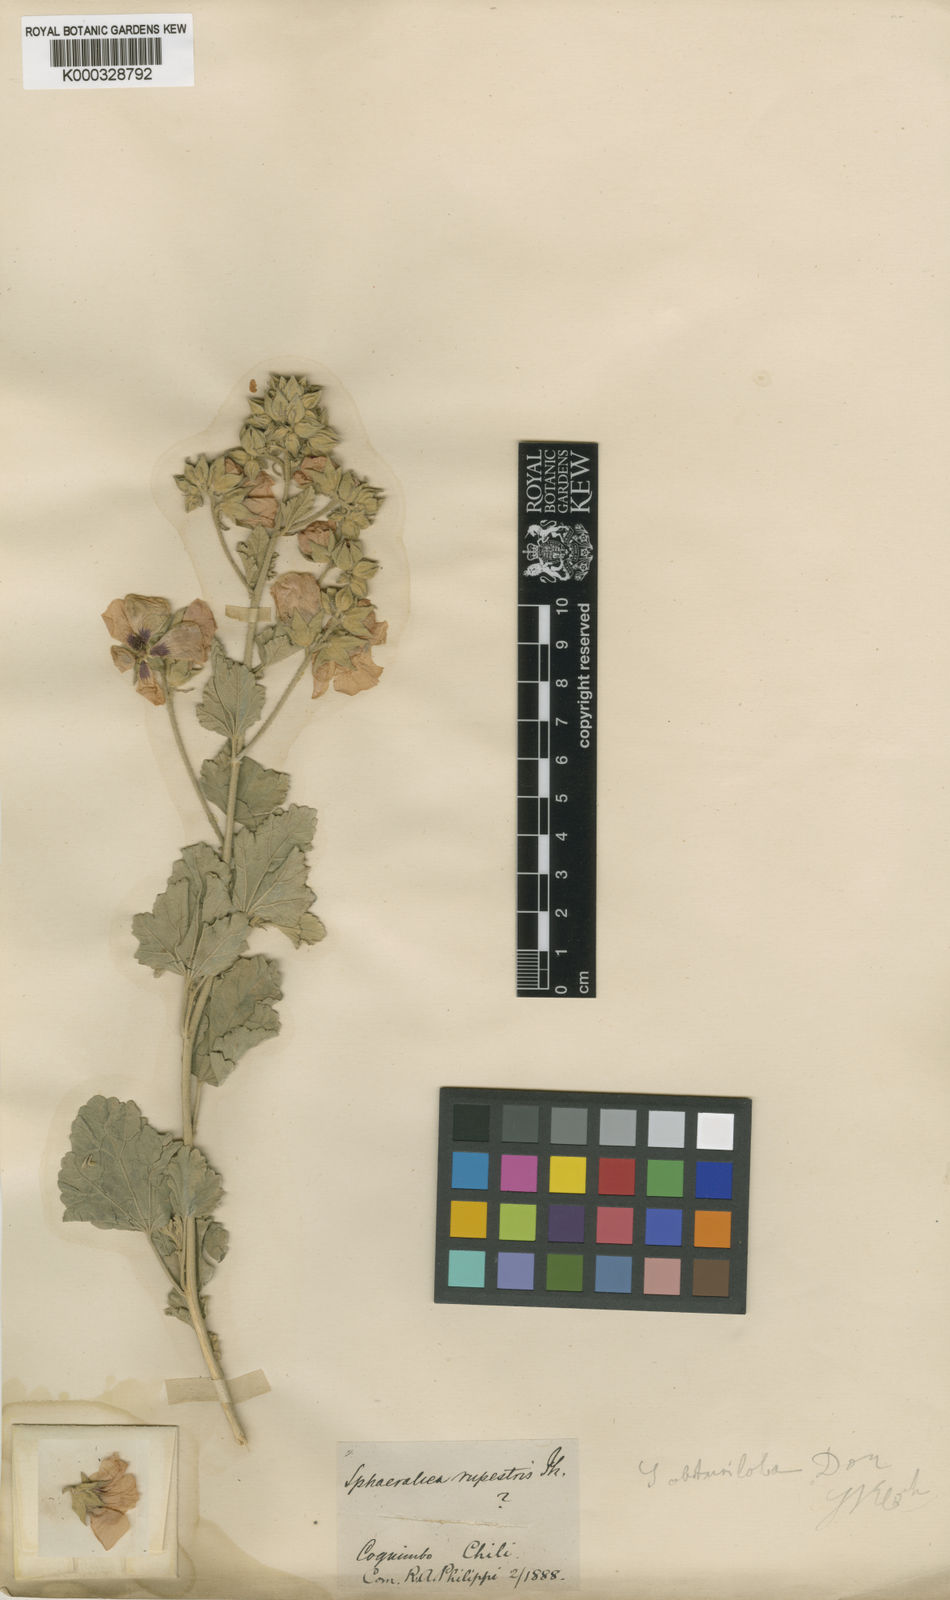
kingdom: Plantae
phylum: Tracheophyta
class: Magnoliopsida
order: Malvales
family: Malvaceae
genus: Sphaeralcea
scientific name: Sphaeralcea obtusiloba
